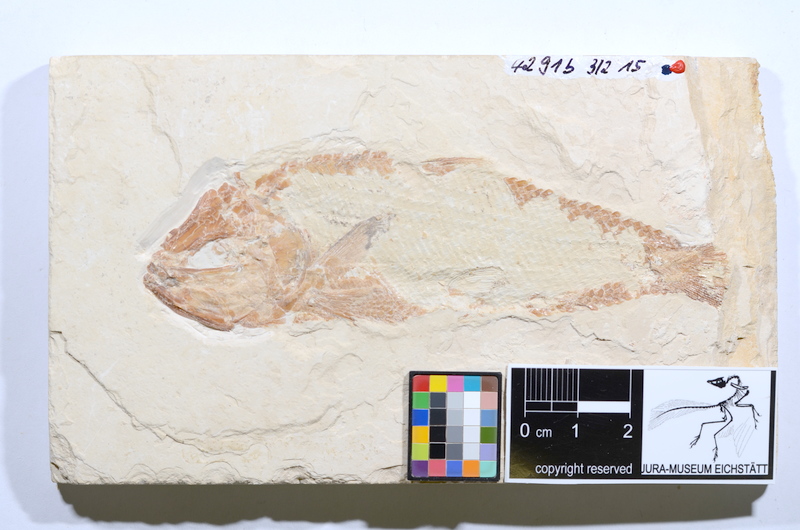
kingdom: Animalia
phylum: Chordata
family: Ankylophoridae
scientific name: Ankylophoridae
